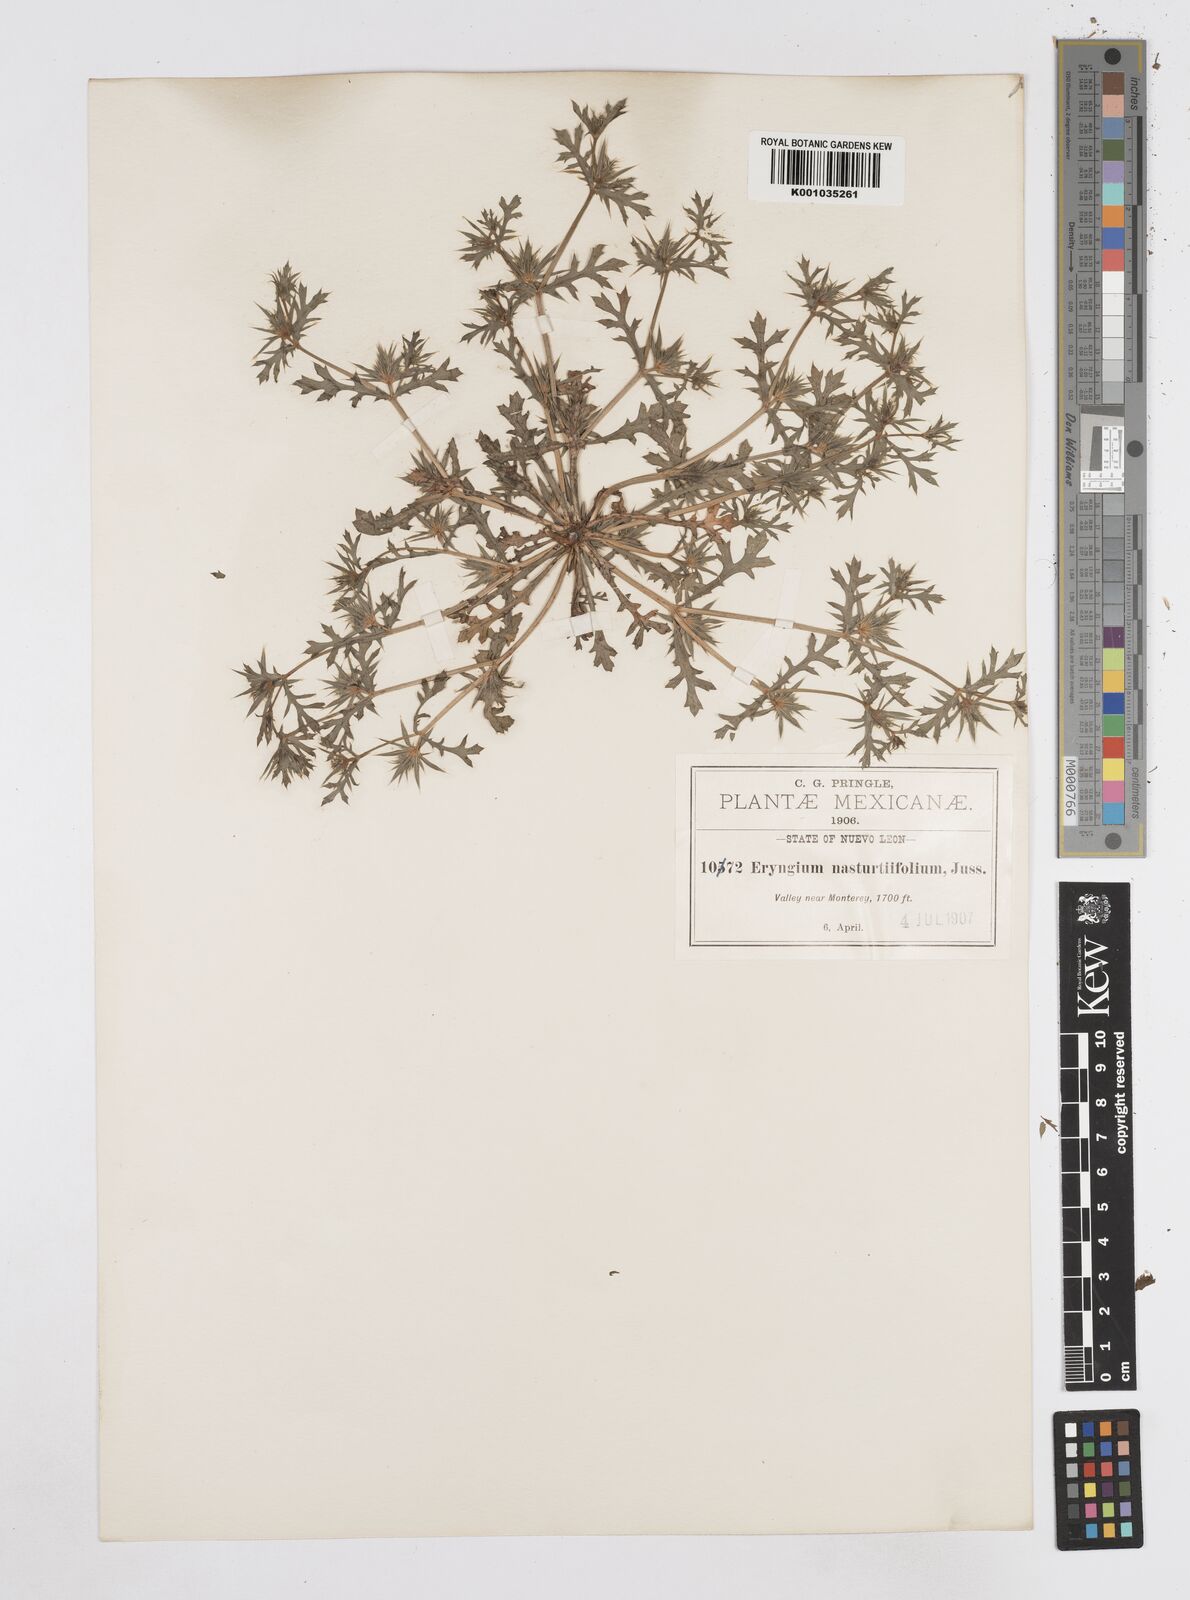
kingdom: Plantae
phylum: Tracheophyta
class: Magnoliopsida
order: Apiales
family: Apiaceae
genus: Eryngium
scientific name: Eryngium nasturtiifolium
